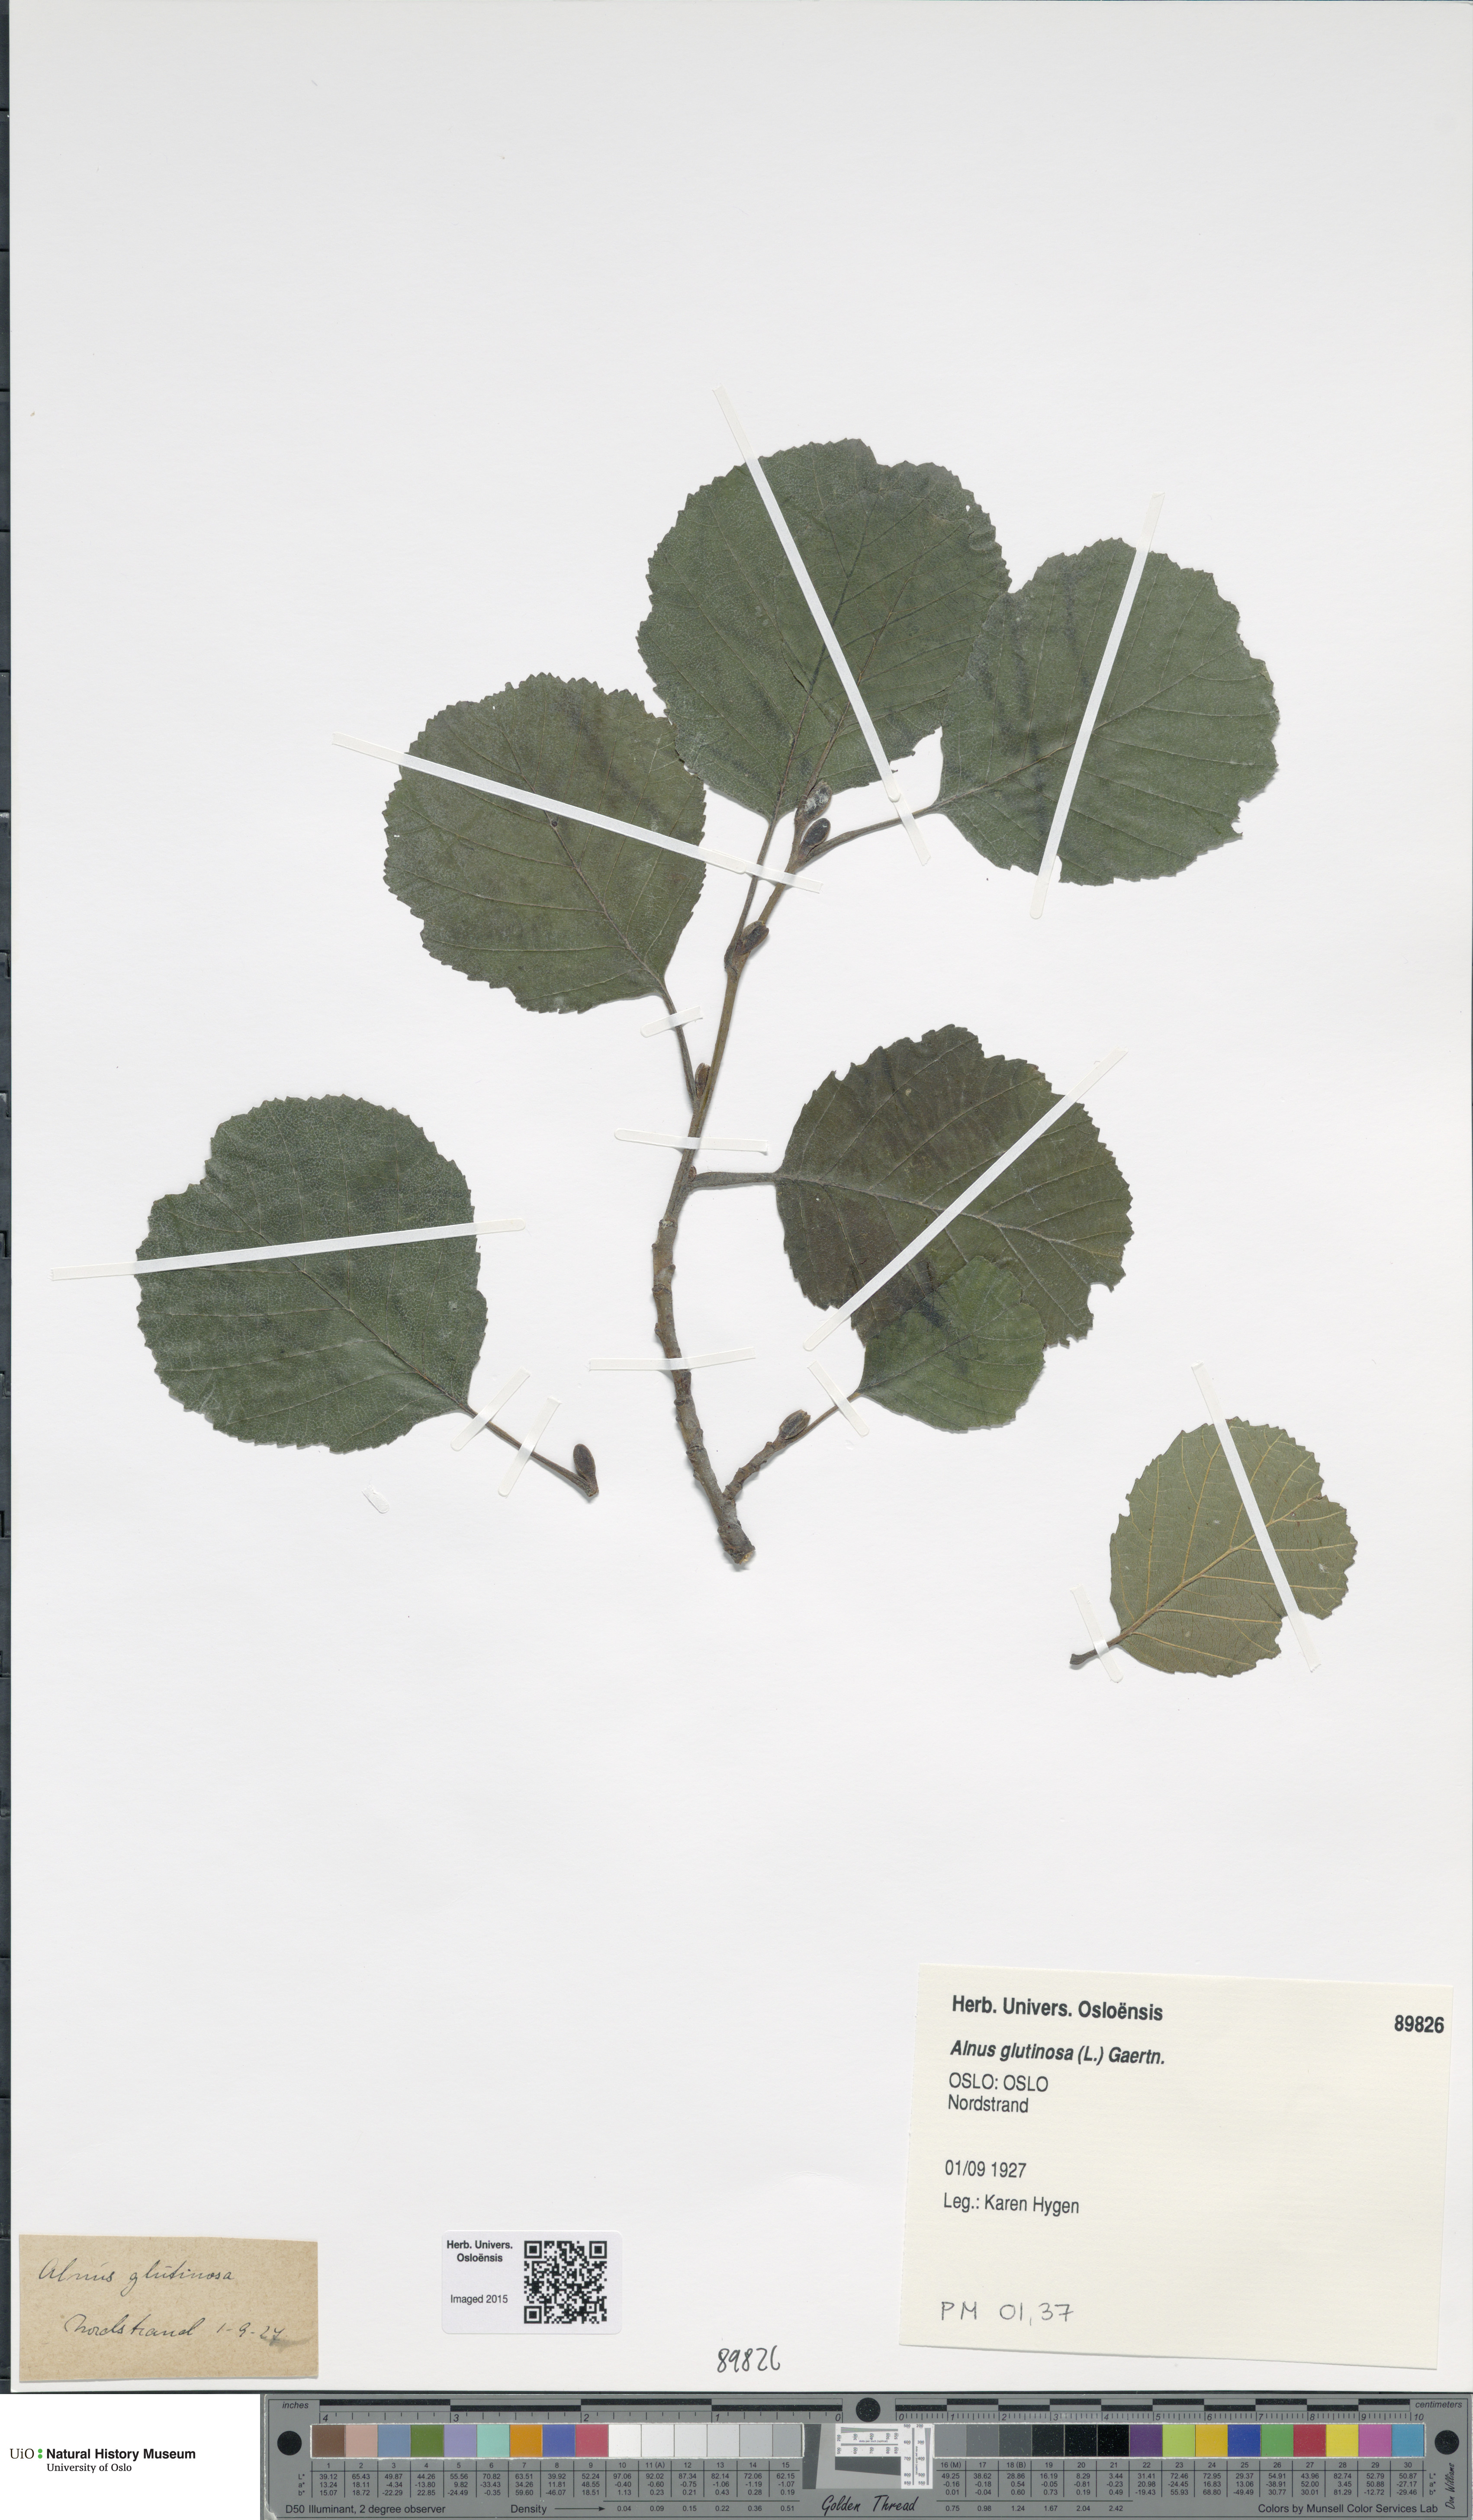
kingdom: Plantae
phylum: Tracheophyta
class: Magnoliopsida
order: Fagales
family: Betulaceae
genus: Alnus
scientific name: Alnus glutinosa
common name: Black alder
